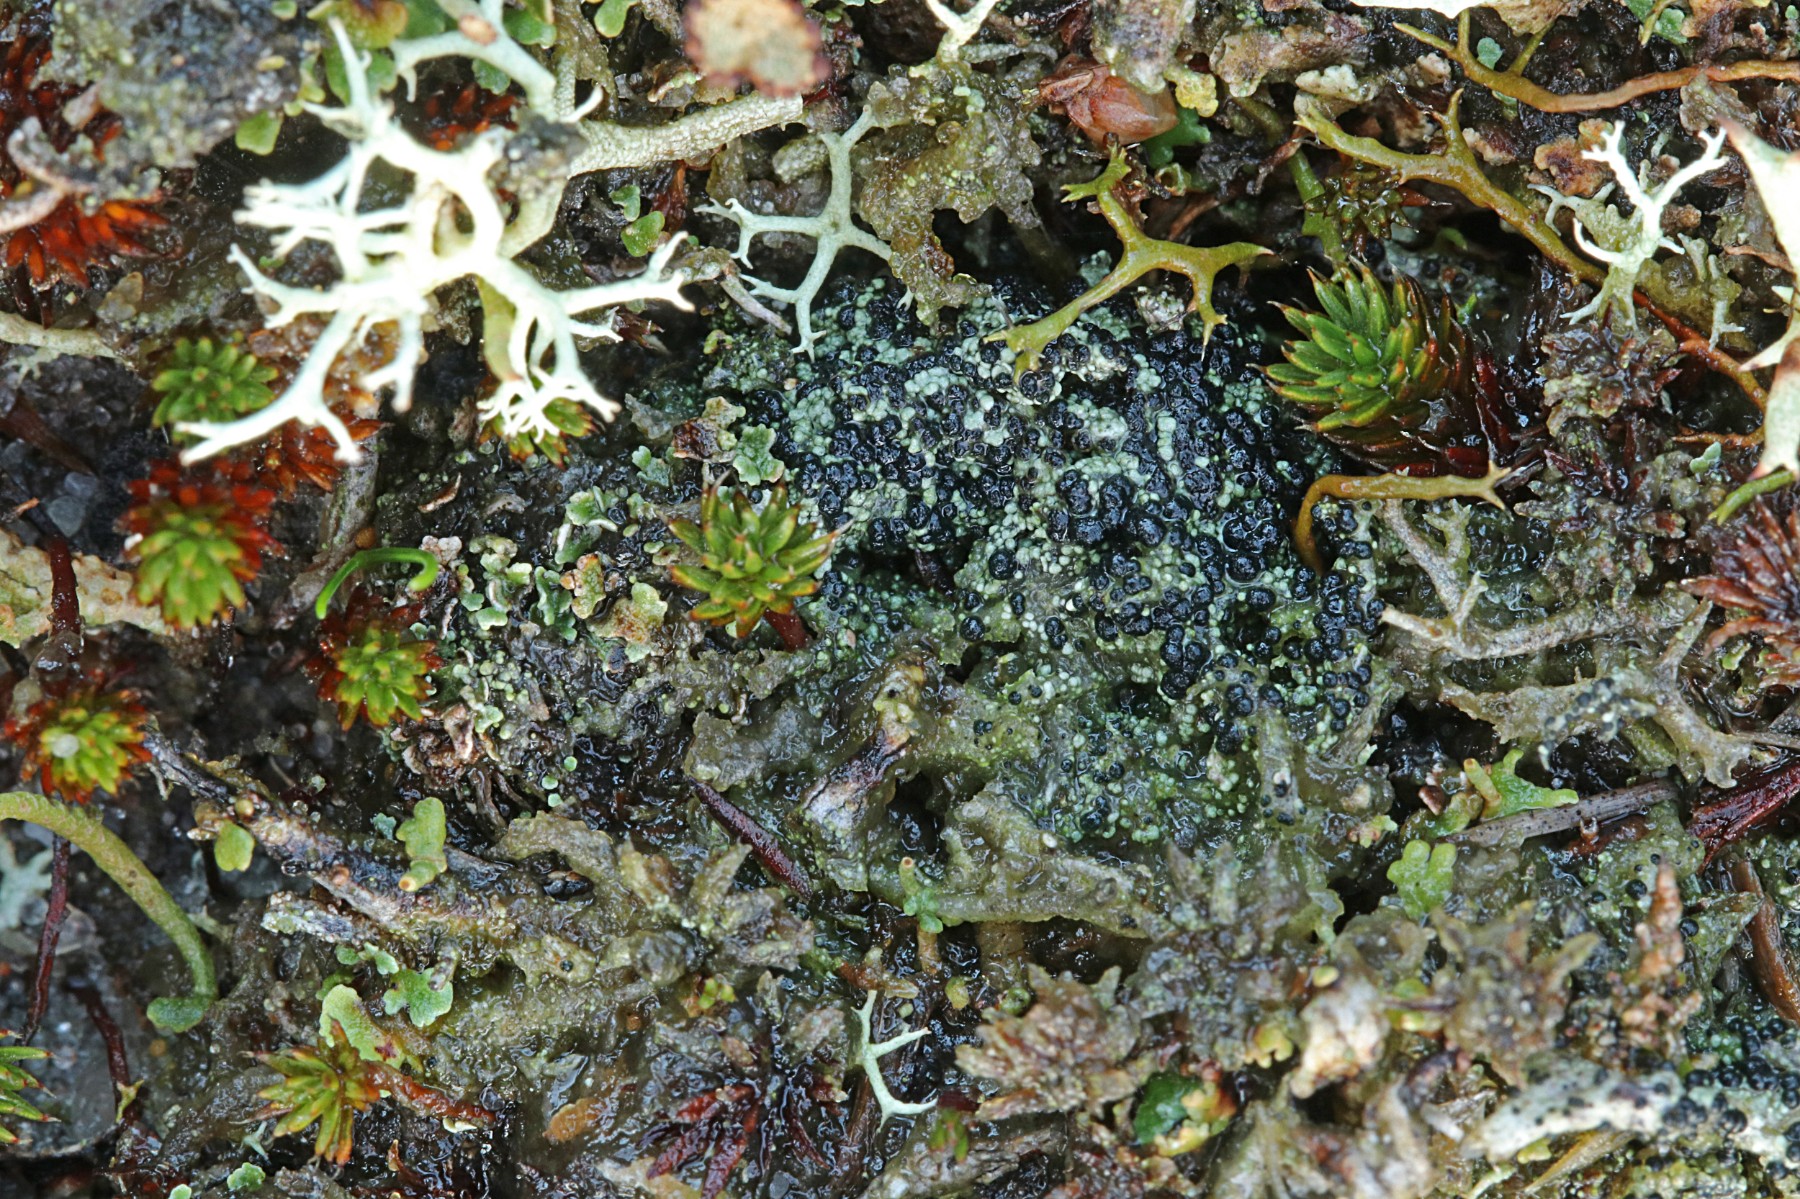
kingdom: Fungi
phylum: Ascomycota
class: Lecanoromycetes
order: Lecanorales
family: Byssolomataceae
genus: Micarea
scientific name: Micarea lignaria
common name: tørve-knaplav
